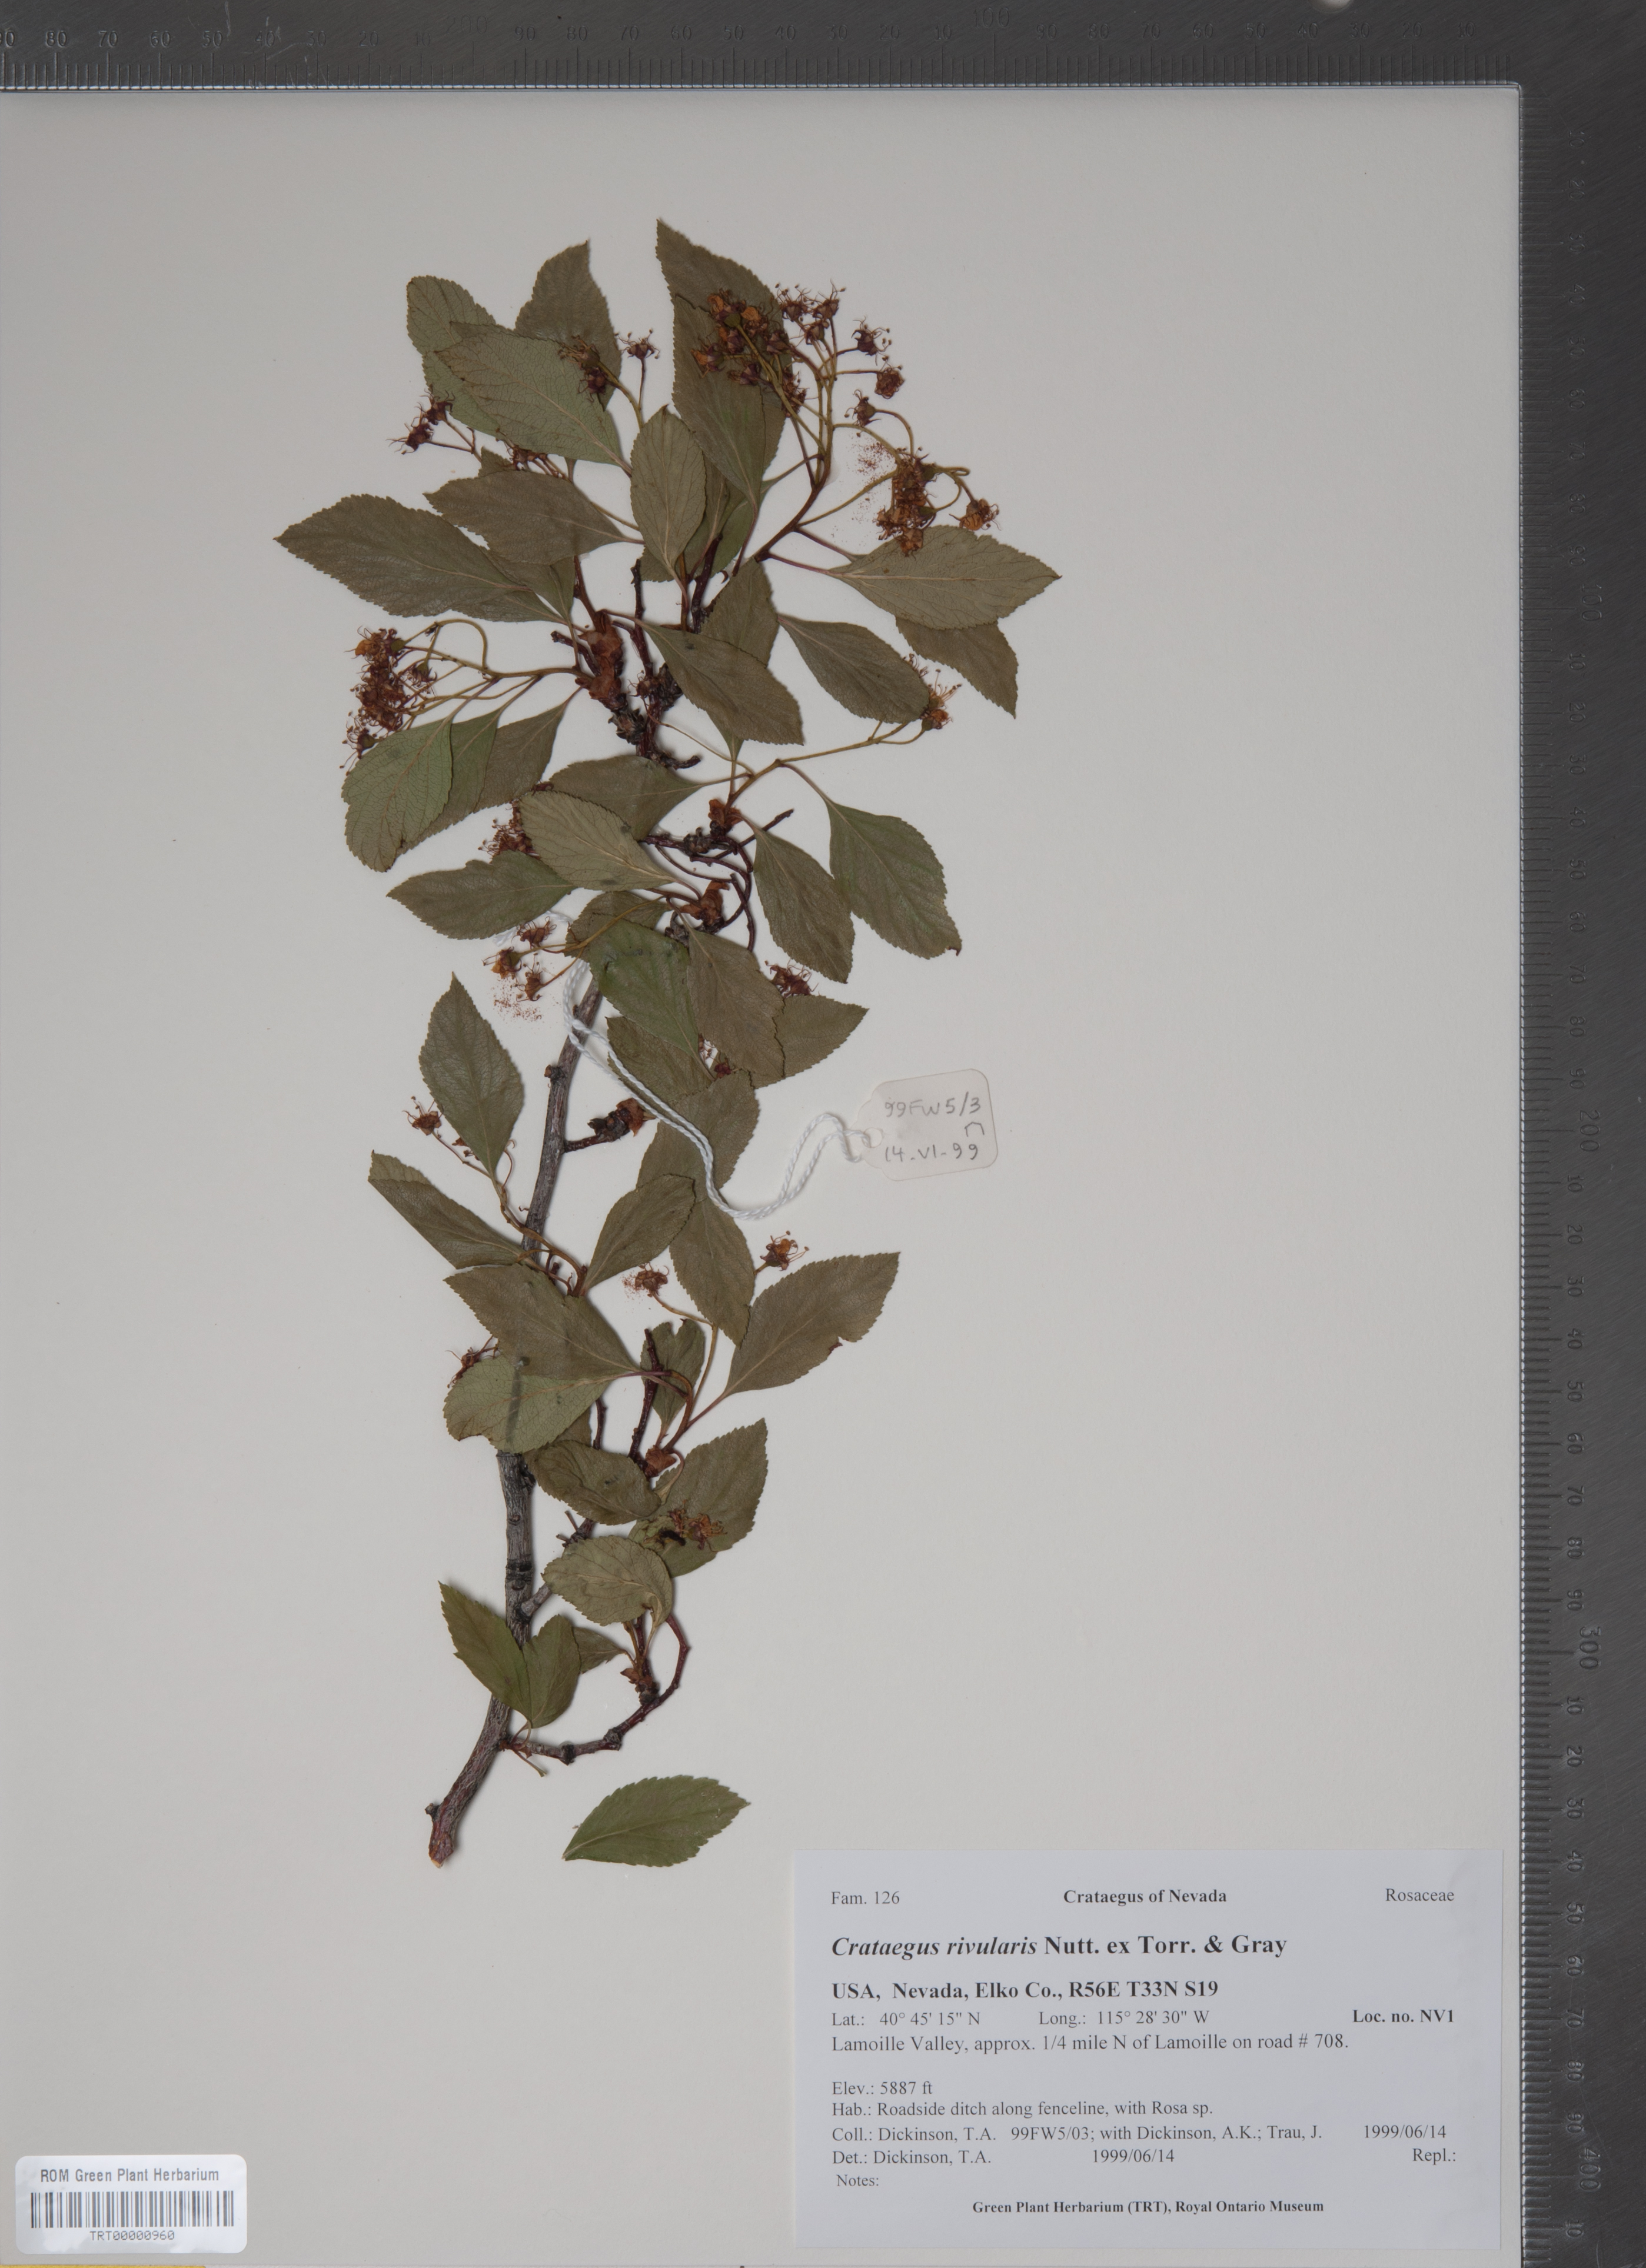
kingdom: Plantae
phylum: Tracheophyta
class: Magnoliopsida
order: Rosales
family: Rosaceae
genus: Crataegus
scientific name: Crataegus rivularis
